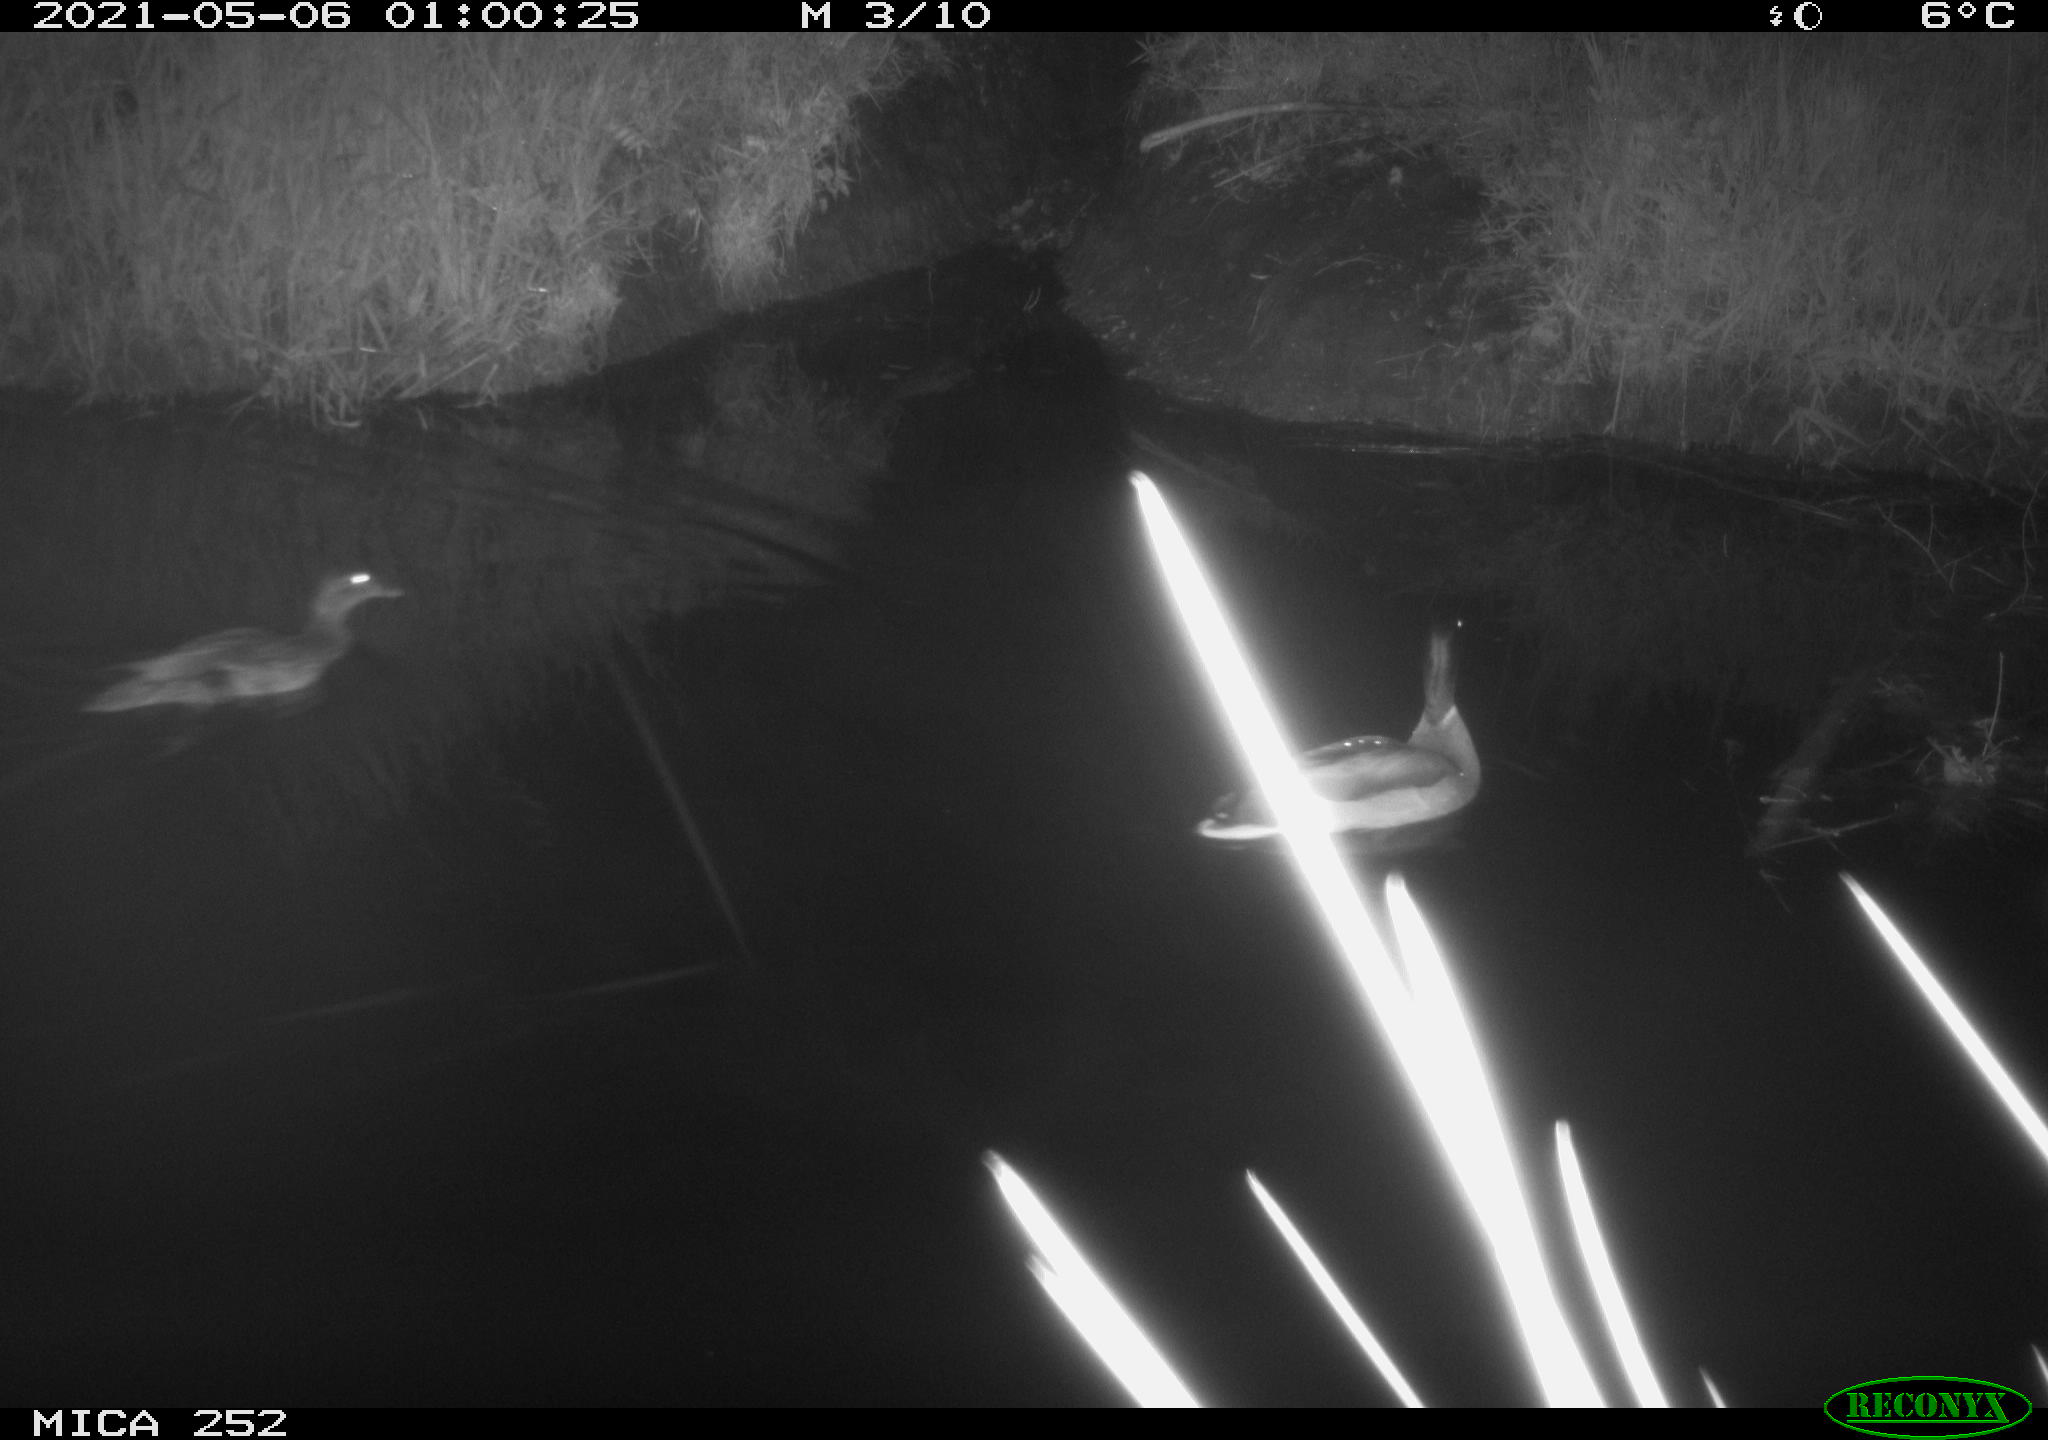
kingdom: Animalia
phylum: Chordata
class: Aves
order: Anseriformes
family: Anatidae
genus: Anas
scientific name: Anas
